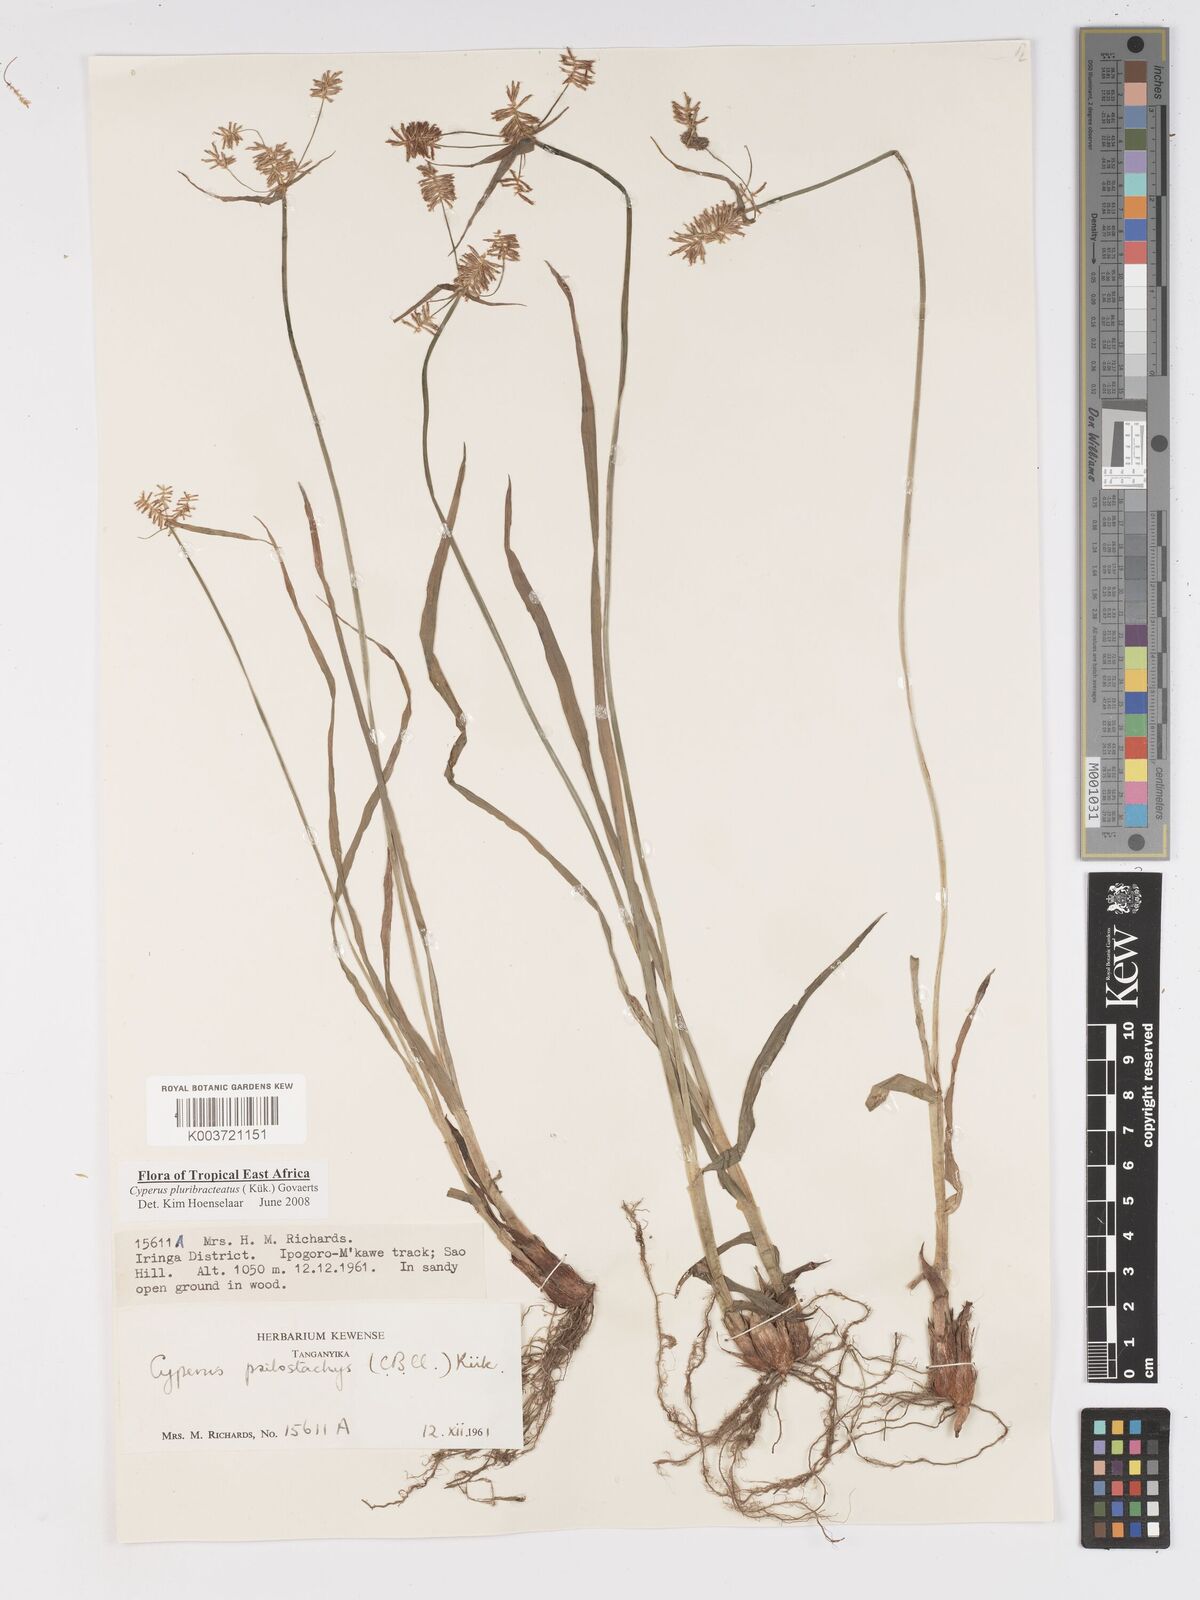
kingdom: Plantae
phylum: Tracheophyta
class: Liliopsida
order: Poales
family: Cyperaceae
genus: Cyperus
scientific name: Cyperus trigonellus
